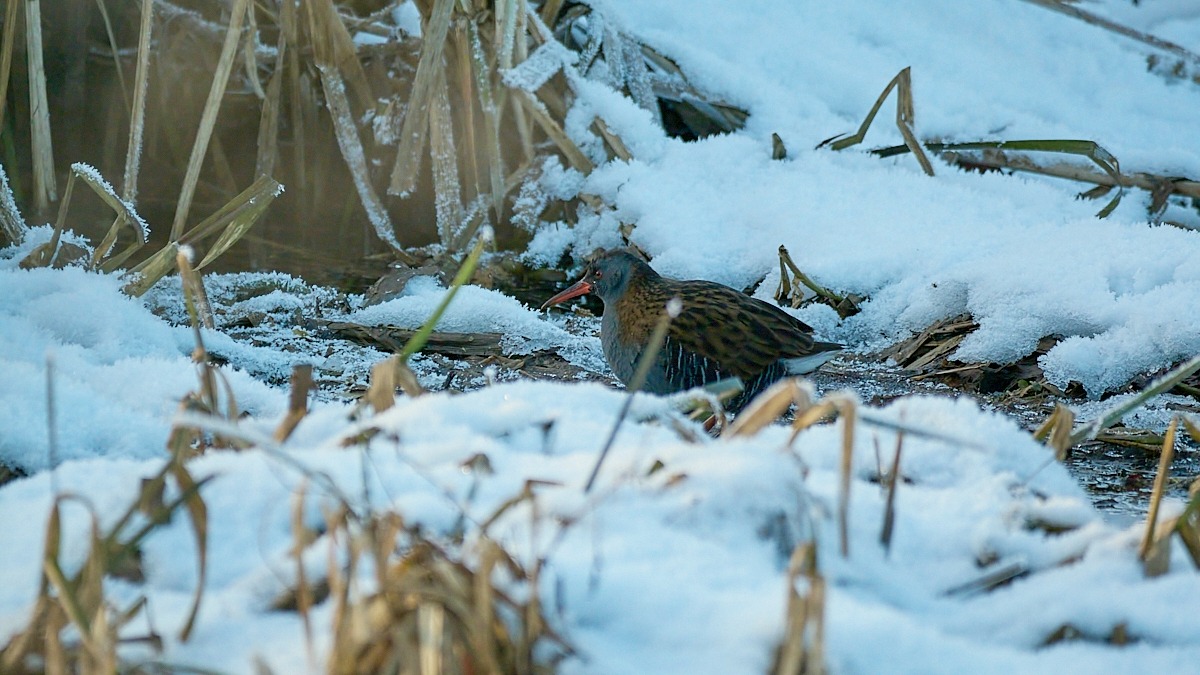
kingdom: Animalia
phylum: Chordata
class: Aves
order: Gruiformes
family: Rallidae
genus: Rallus
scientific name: Rallus aquaticus
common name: Vandrikse
